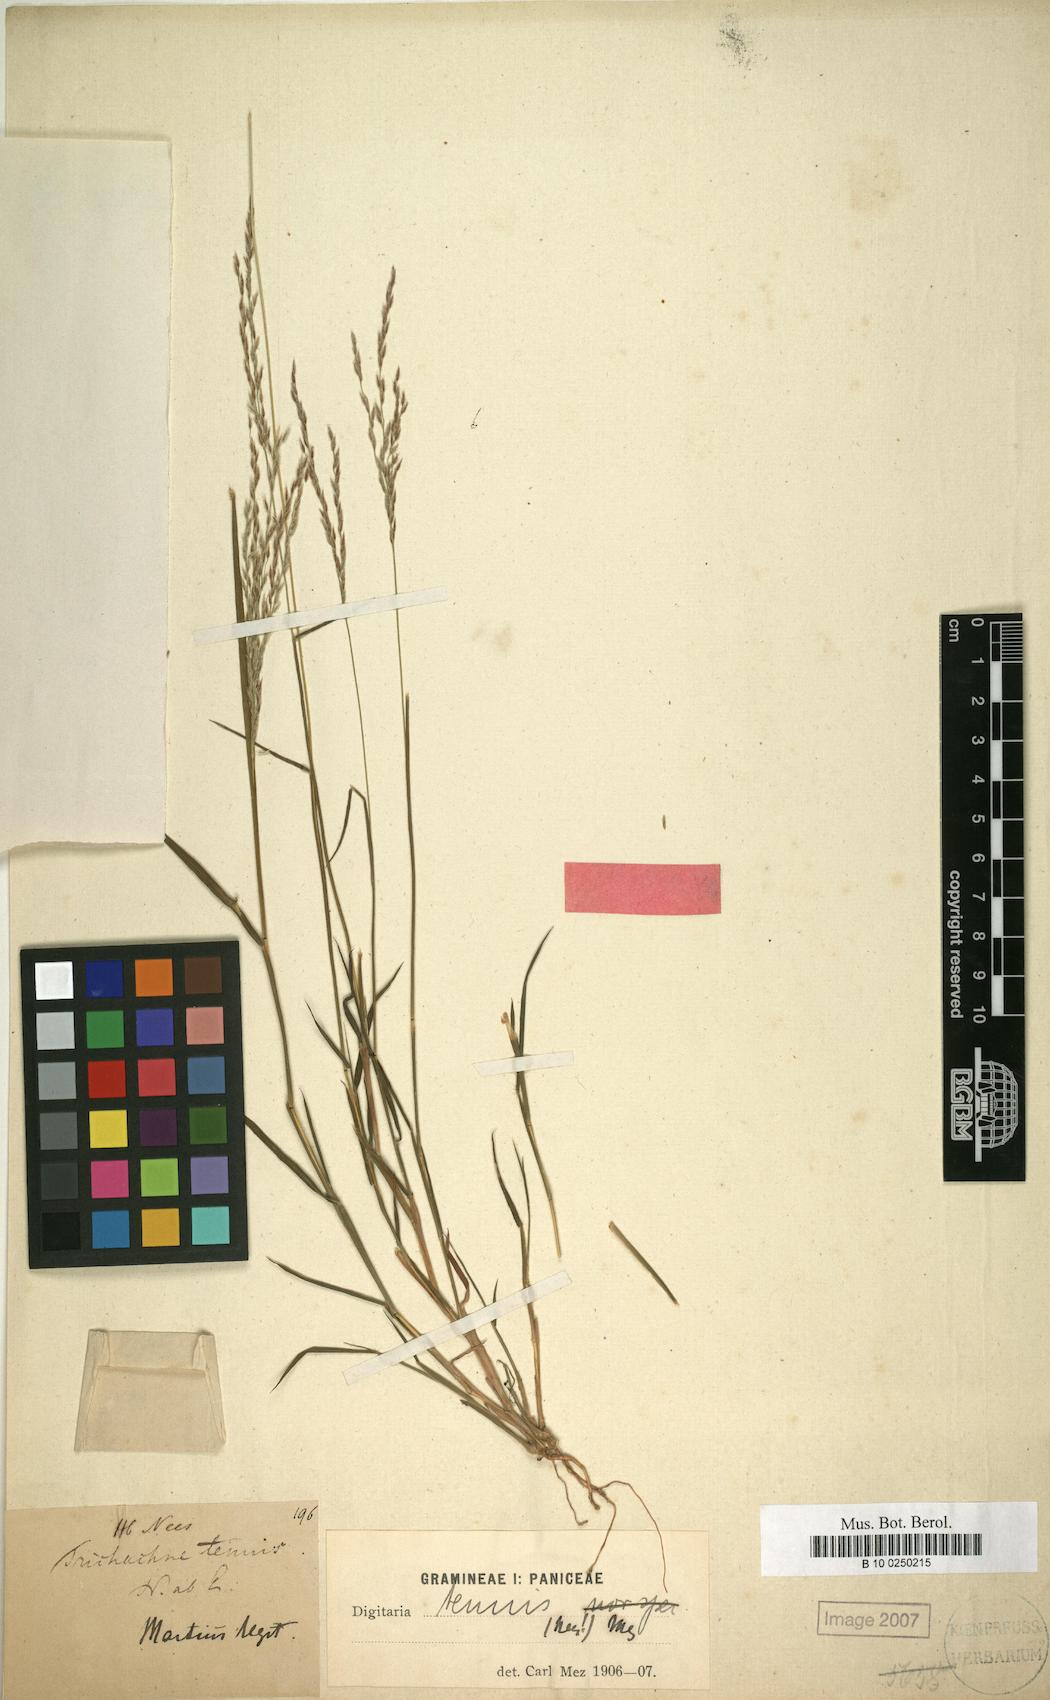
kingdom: Plantae
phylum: Tracheophyta
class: Liliopsida
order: Poales
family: Poaceae
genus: Digitaria
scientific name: Digitaria tenuis
